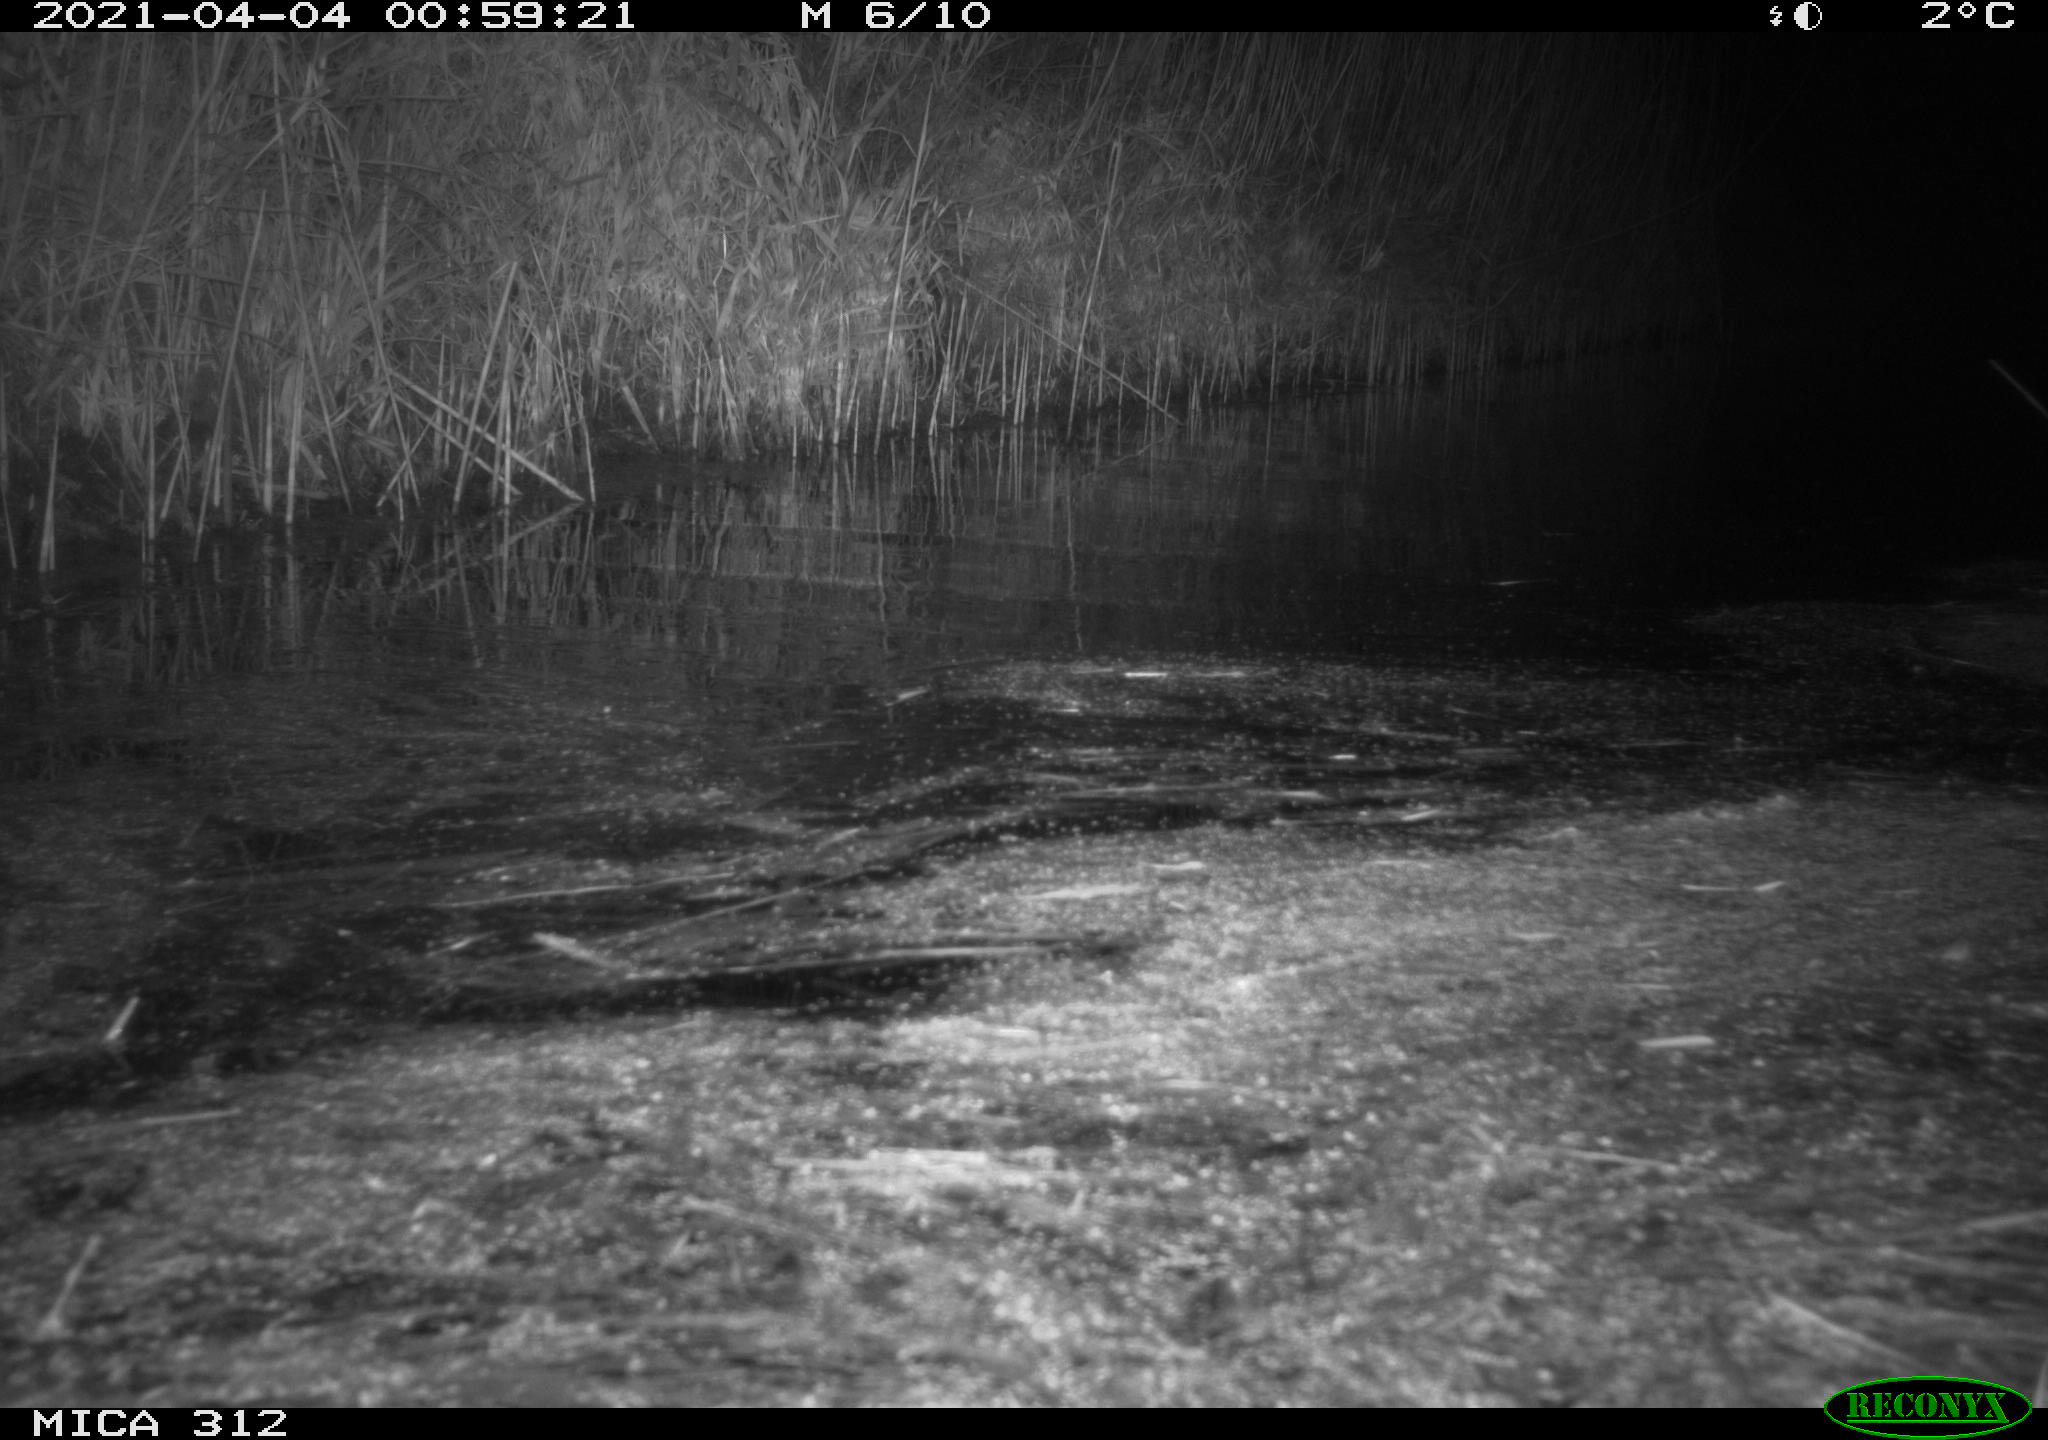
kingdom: Animalia
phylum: Chordata
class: Aves
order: Gruiformes
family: Rallidae
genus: Fulica
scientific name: Fulica atra
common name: Eurasian coot
